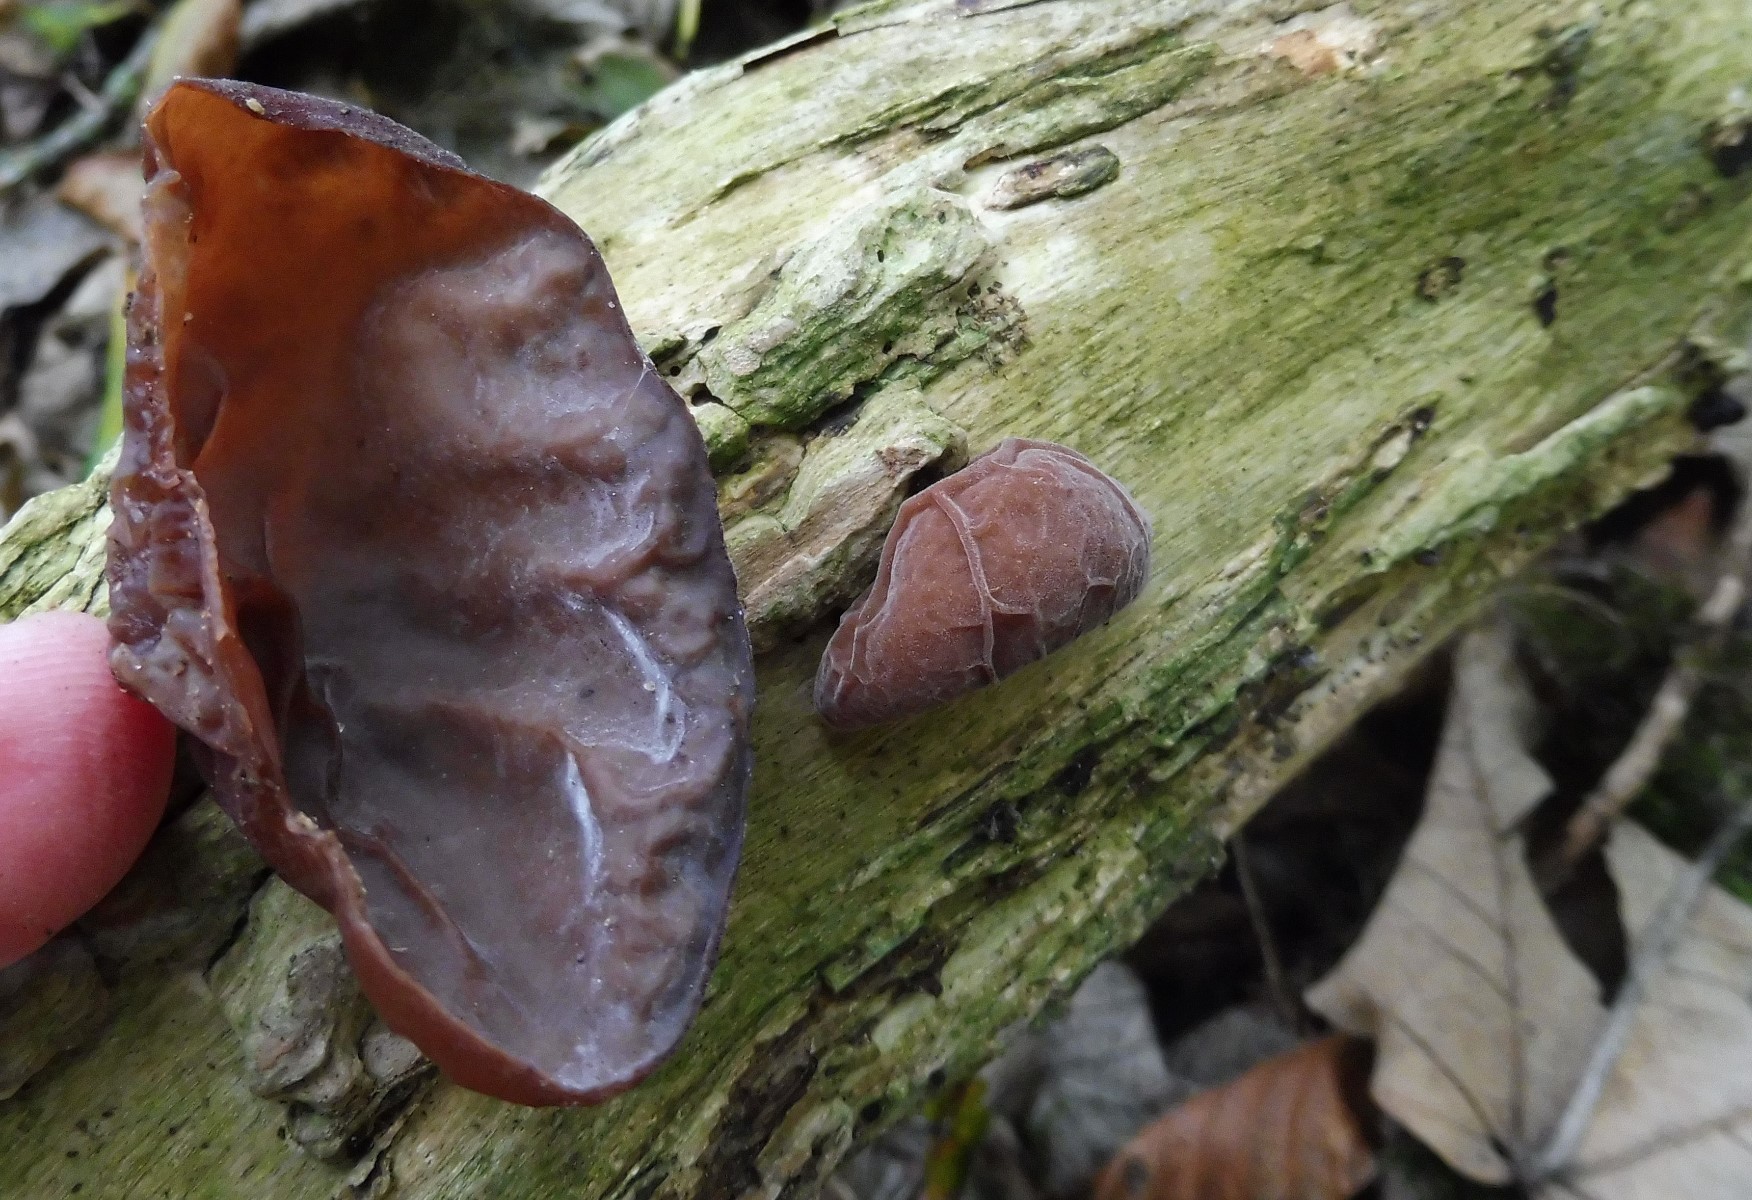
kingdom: Fungi
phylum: Basidiomycota
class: Agaricomycetes
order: Auriculariales
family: Auriculariaceae
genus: Auricularia
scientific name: Auricularia auricula-judae
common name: almindelig judasøre
